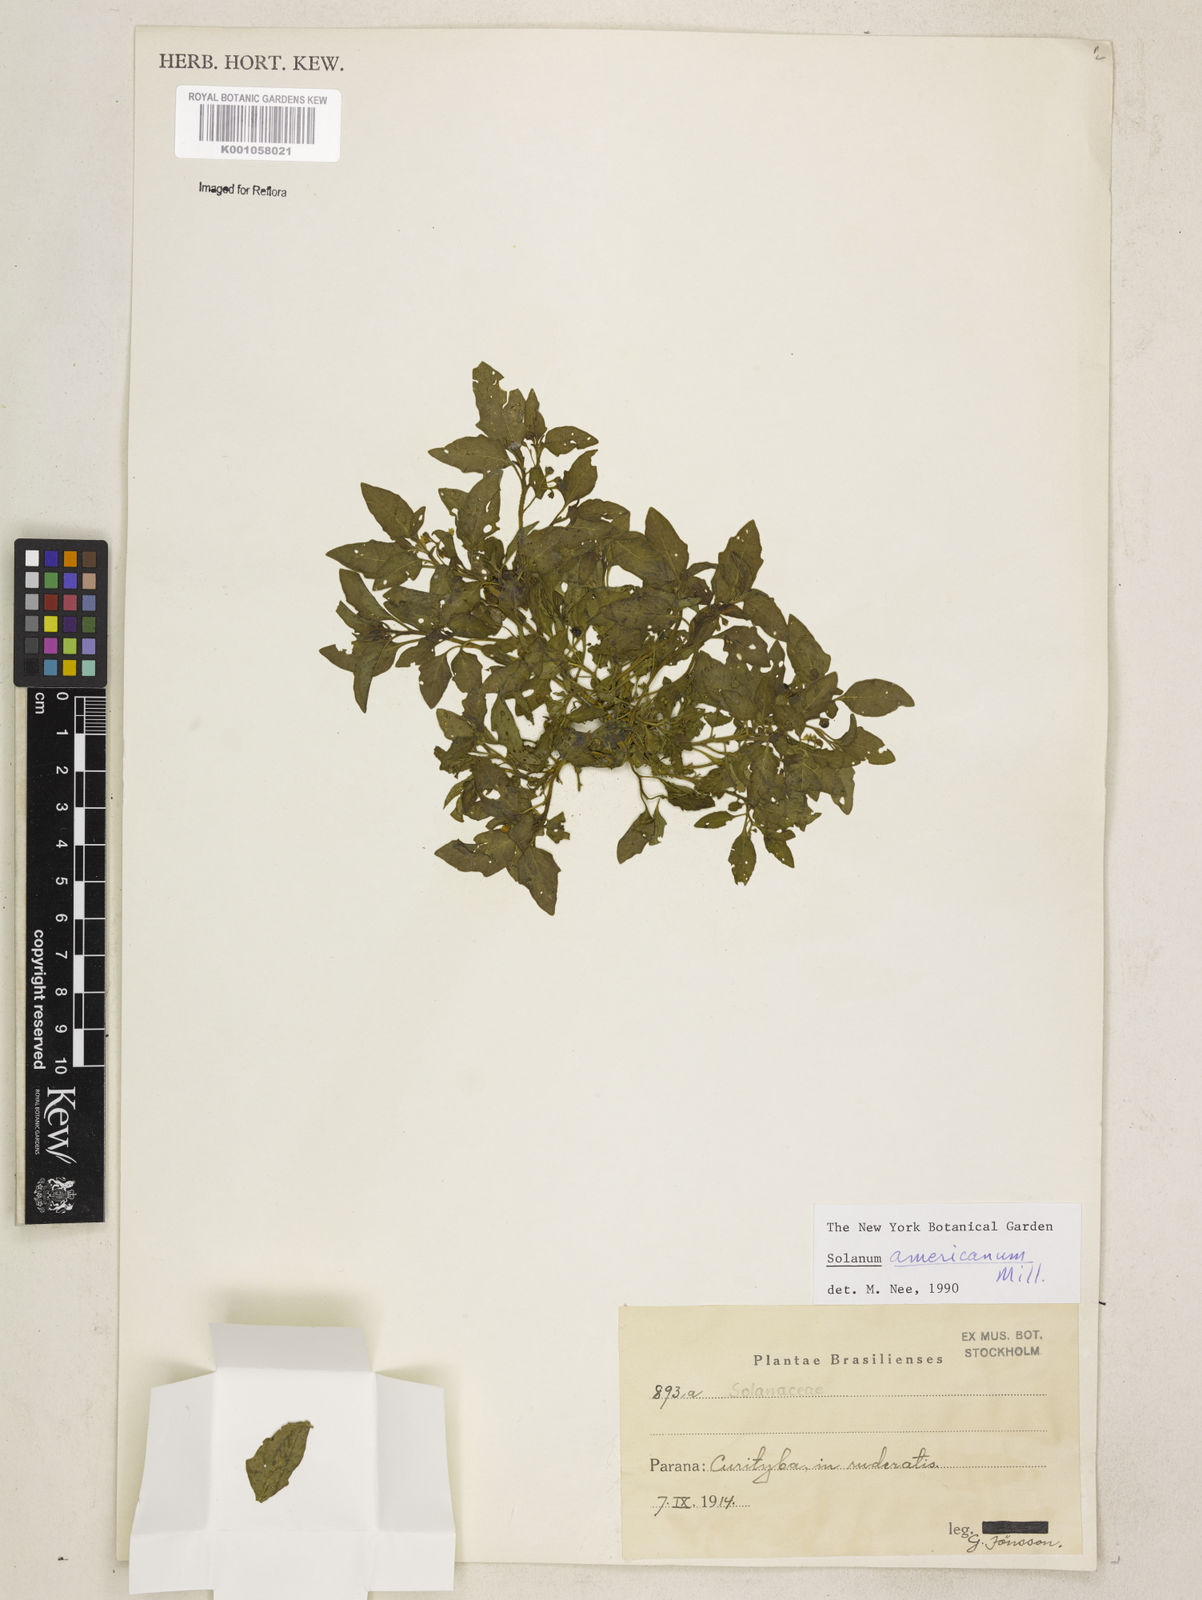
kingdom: Plantae
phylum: Tracheophyta
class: Magnoliopsida
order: Solanales
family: Solanaceae
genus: Solanum
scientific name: Solanum americanum
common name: American black nightshade
